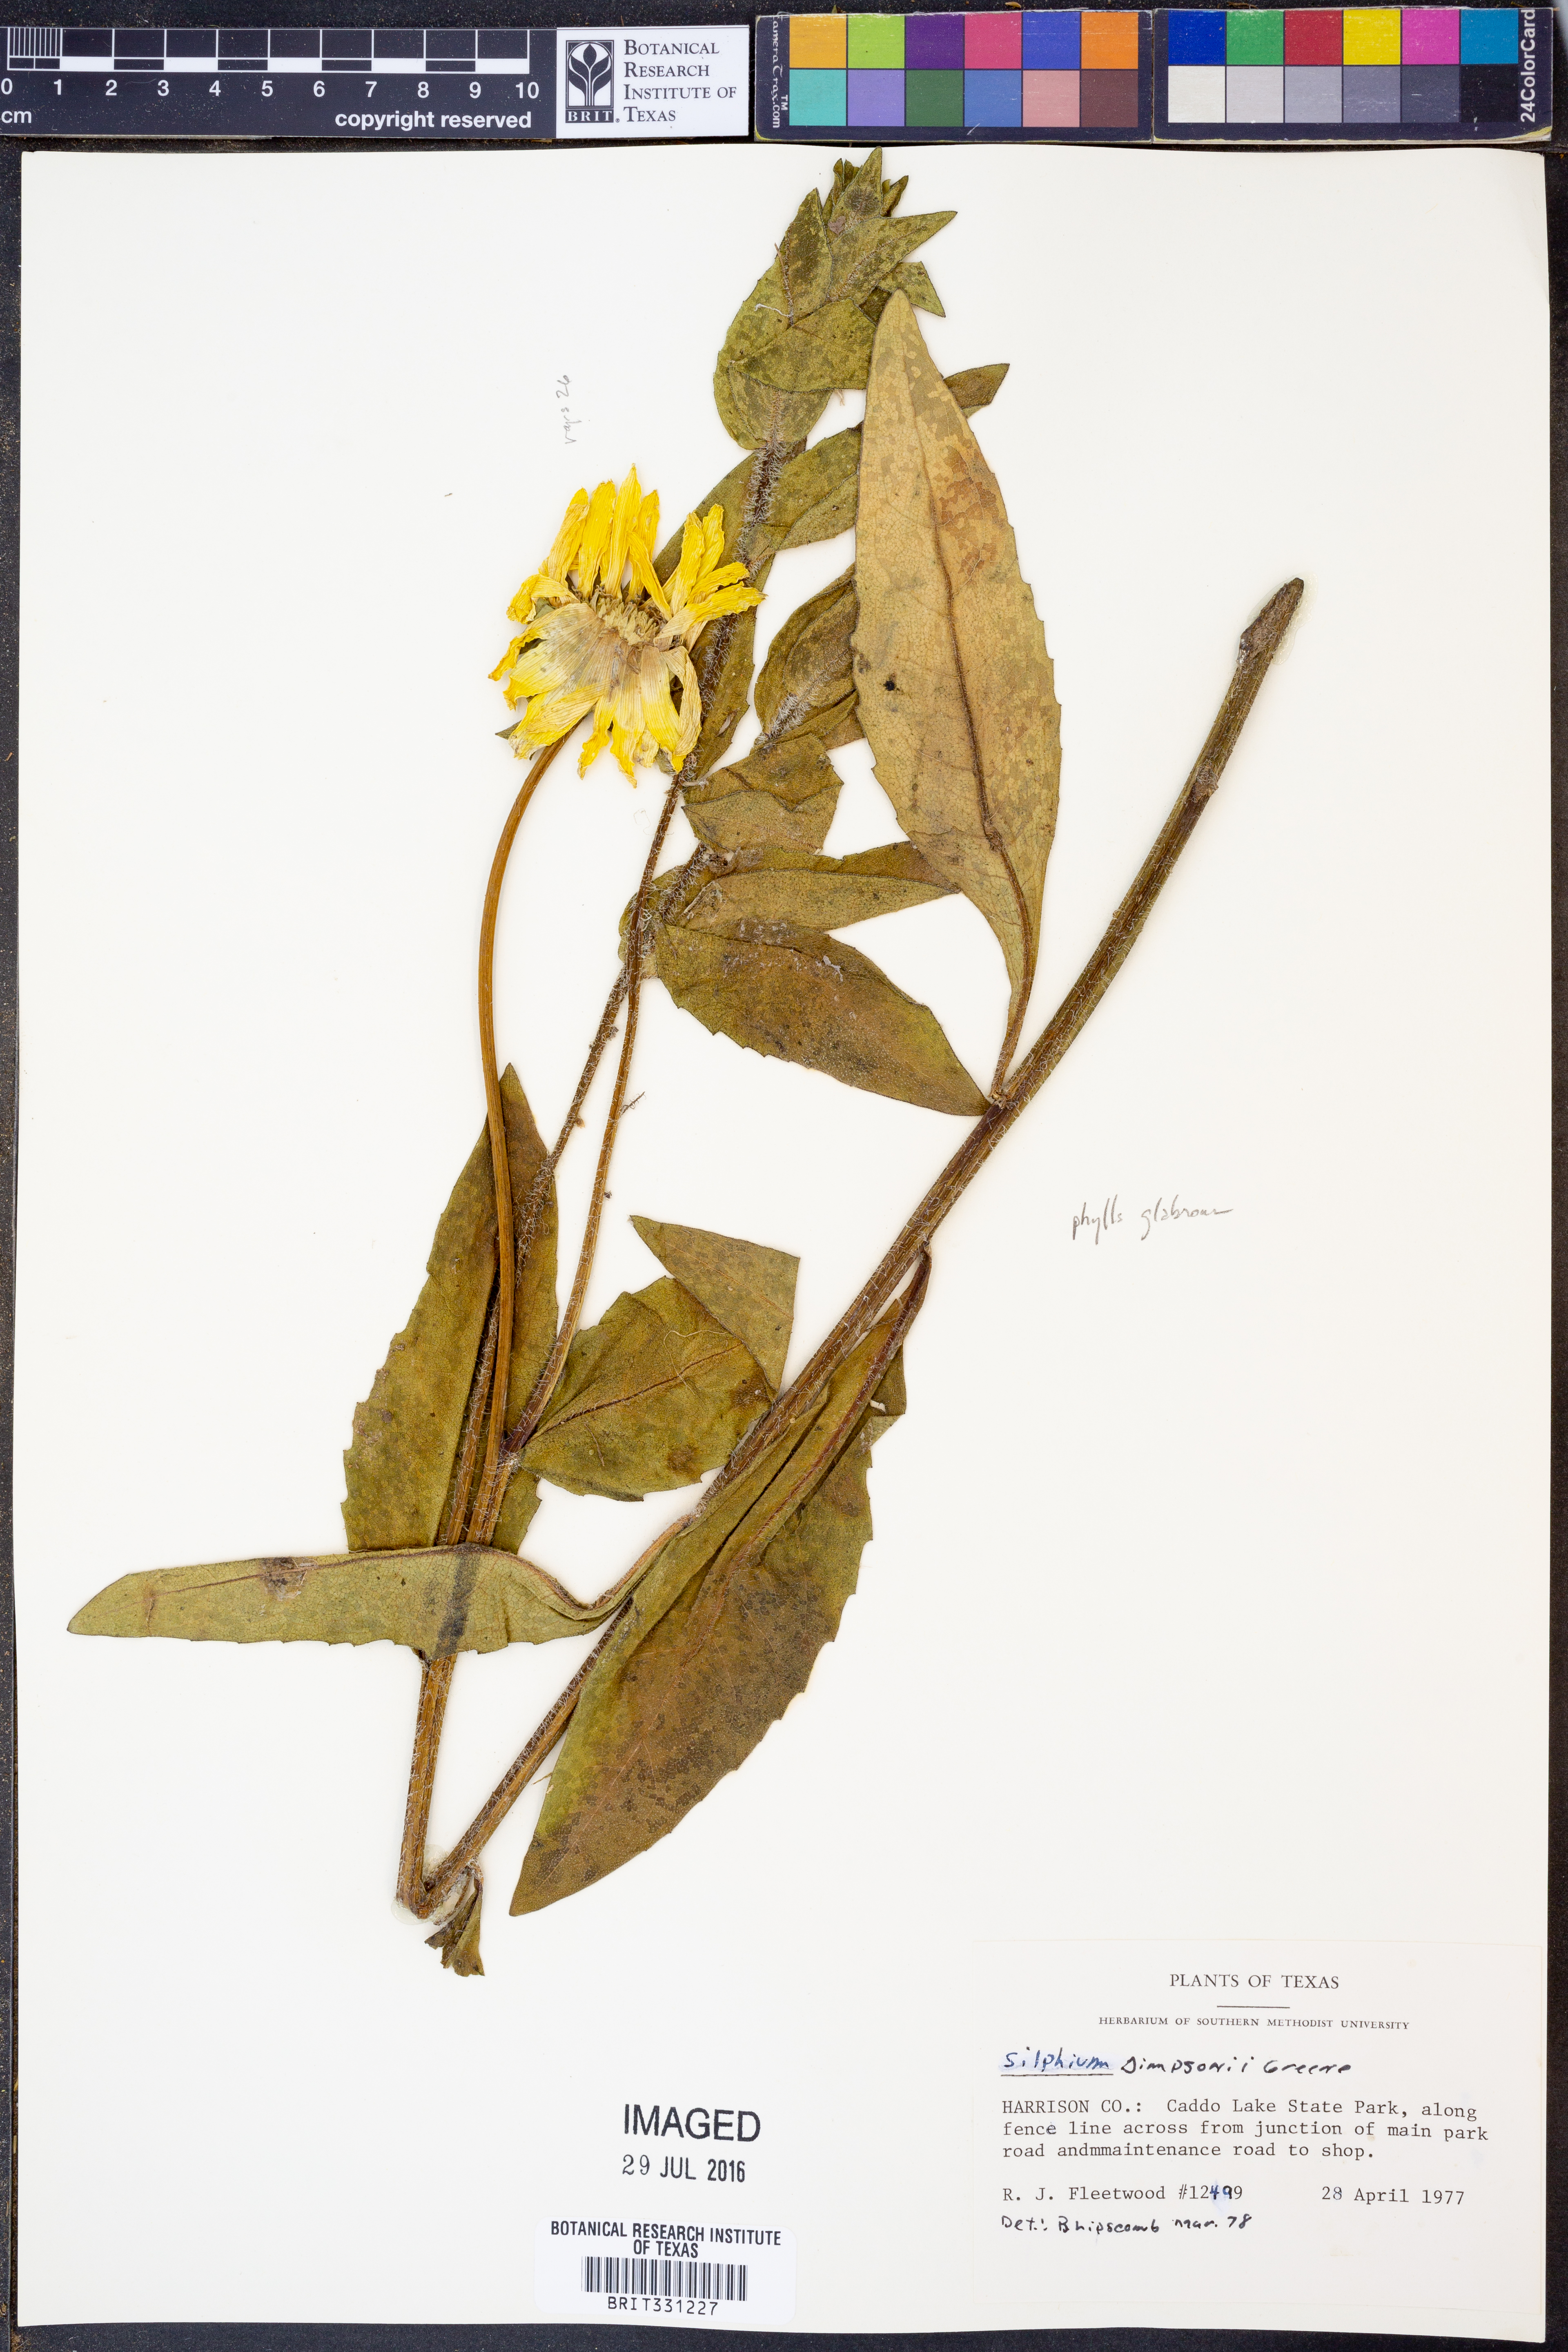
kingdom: Plantae
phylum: Tracheophyta
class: Magnoliopsida
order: Asterales
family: Asteraceae
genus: Silphium
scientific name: Silphium asteriscus
